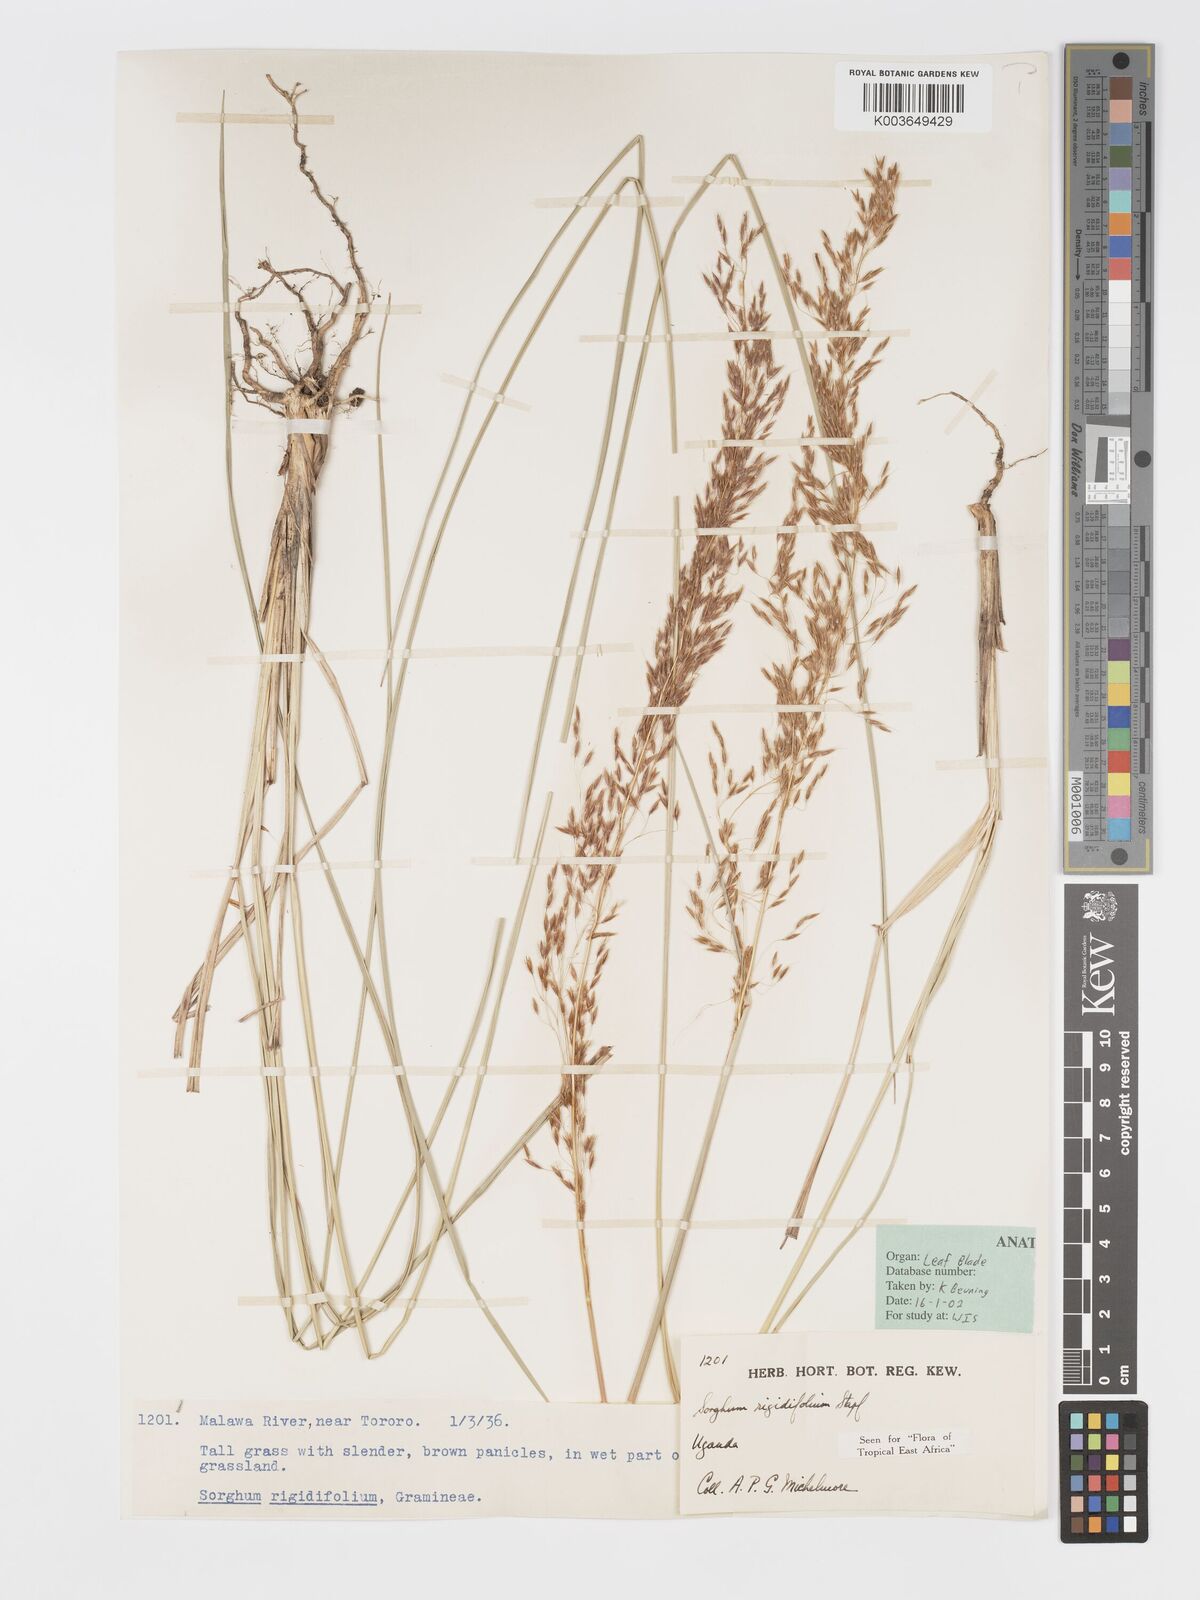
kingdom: Plantae
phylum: Tracheophyta
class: Liliopsida
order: Poales
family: Poaceae
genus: Sorghastrum
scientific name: Sorghastrum stipoides
